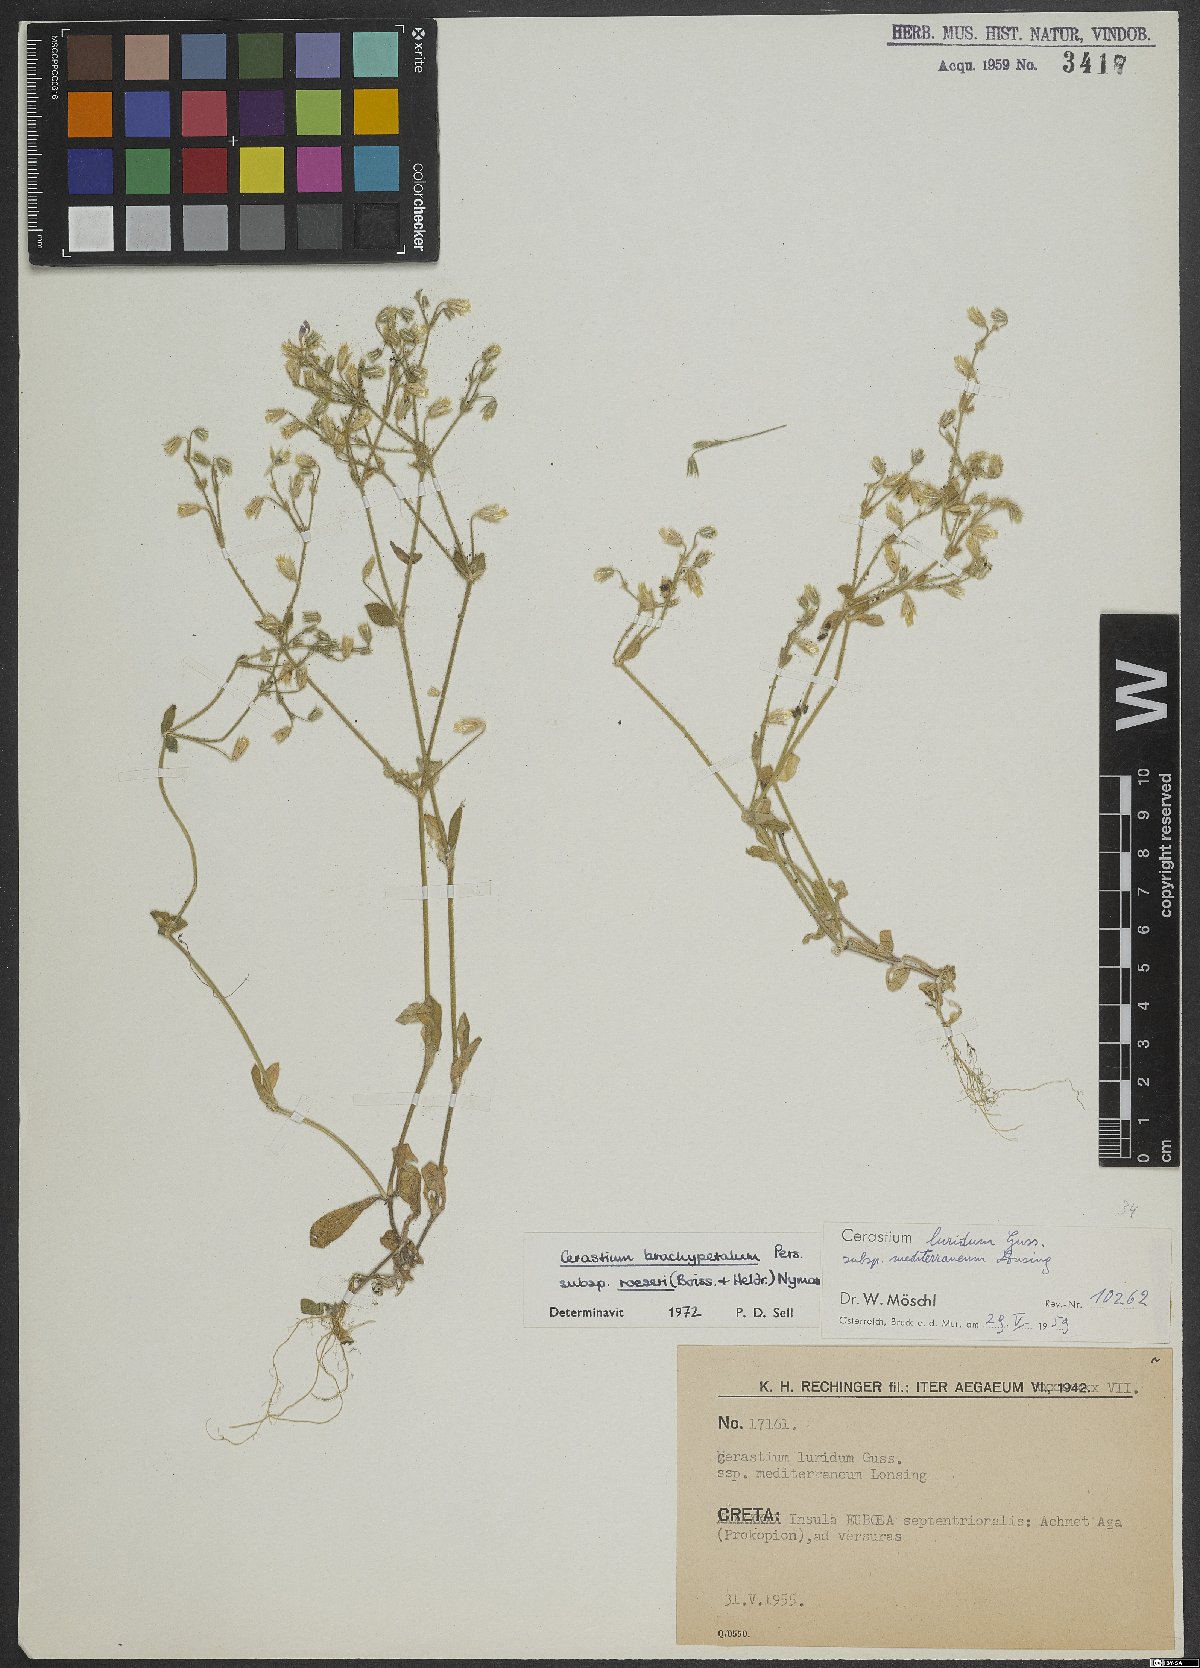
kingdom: Plantae
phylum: Tracheophyta
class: Magnoliopsida
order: Caryophyllales
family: Caryophyllaceae
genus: Cerastium
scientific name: Cerastium brachypetalum
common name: Grey mouse-ear
